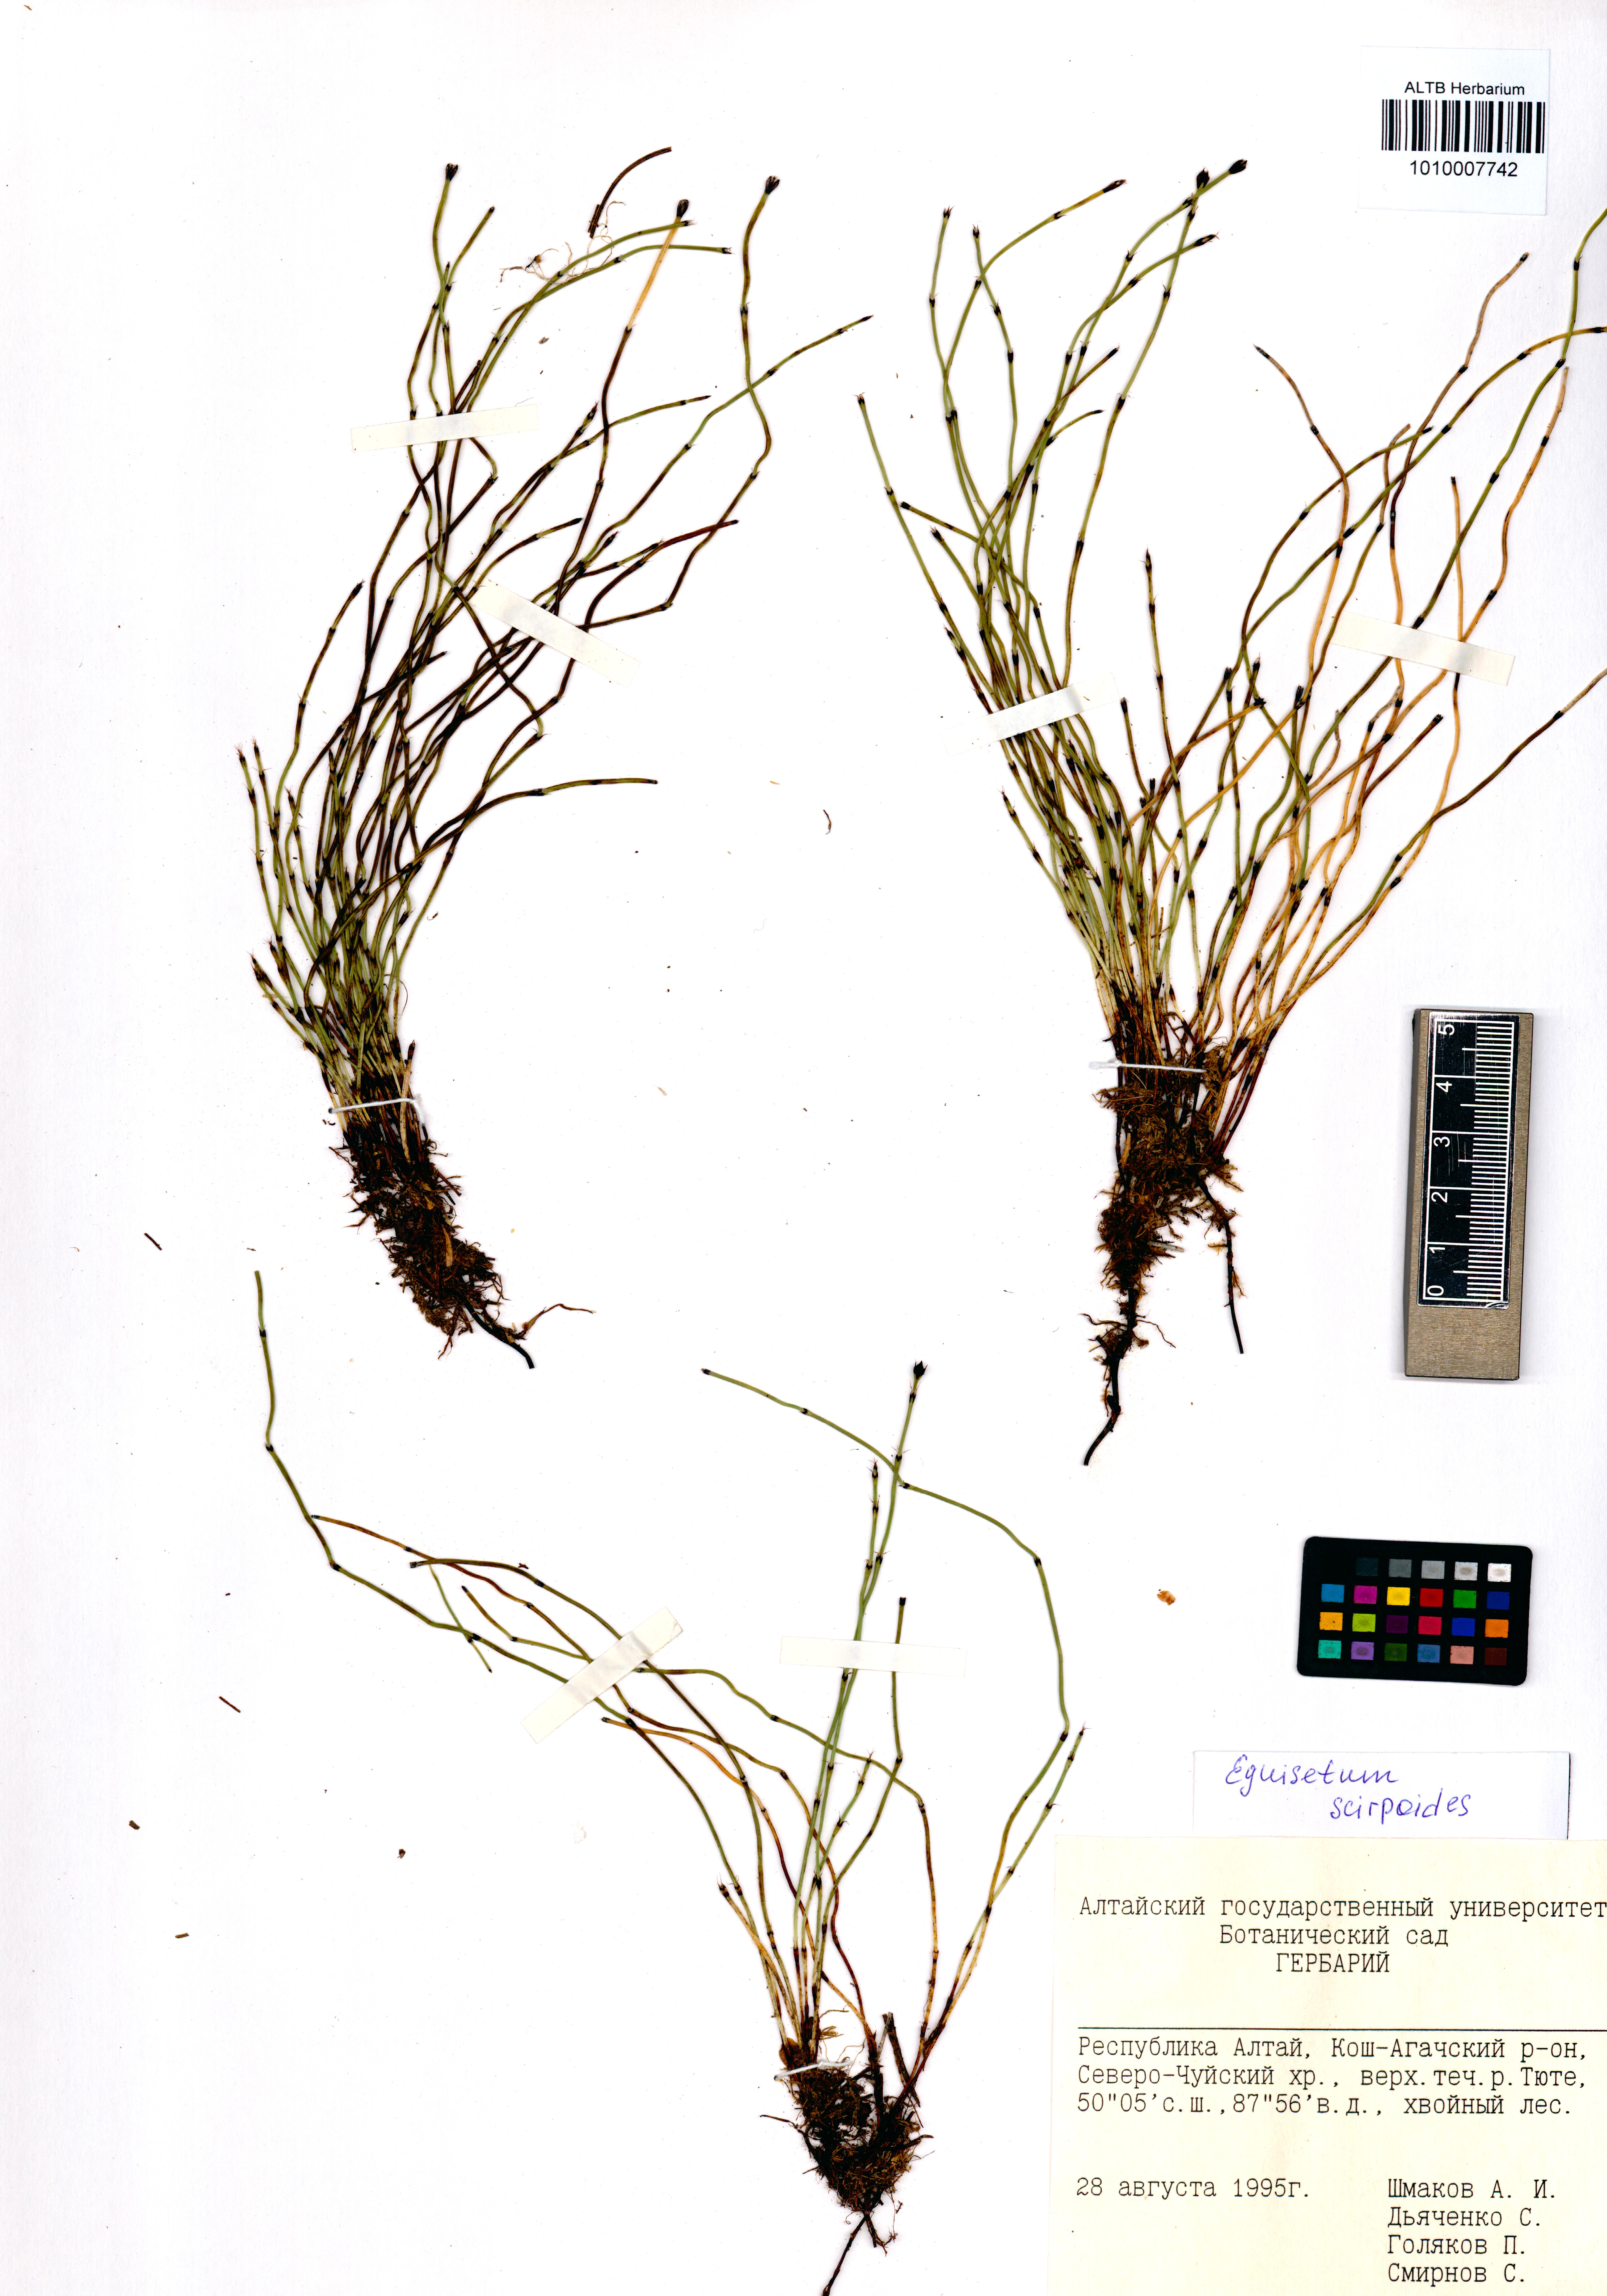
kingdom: Plantae
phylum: Tracheophyta
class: Polypodiopsida
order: Equisetales
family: Equisetaceae
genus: Equisetum
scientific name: Equisetum scirpoides
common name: Delicate horsetail
